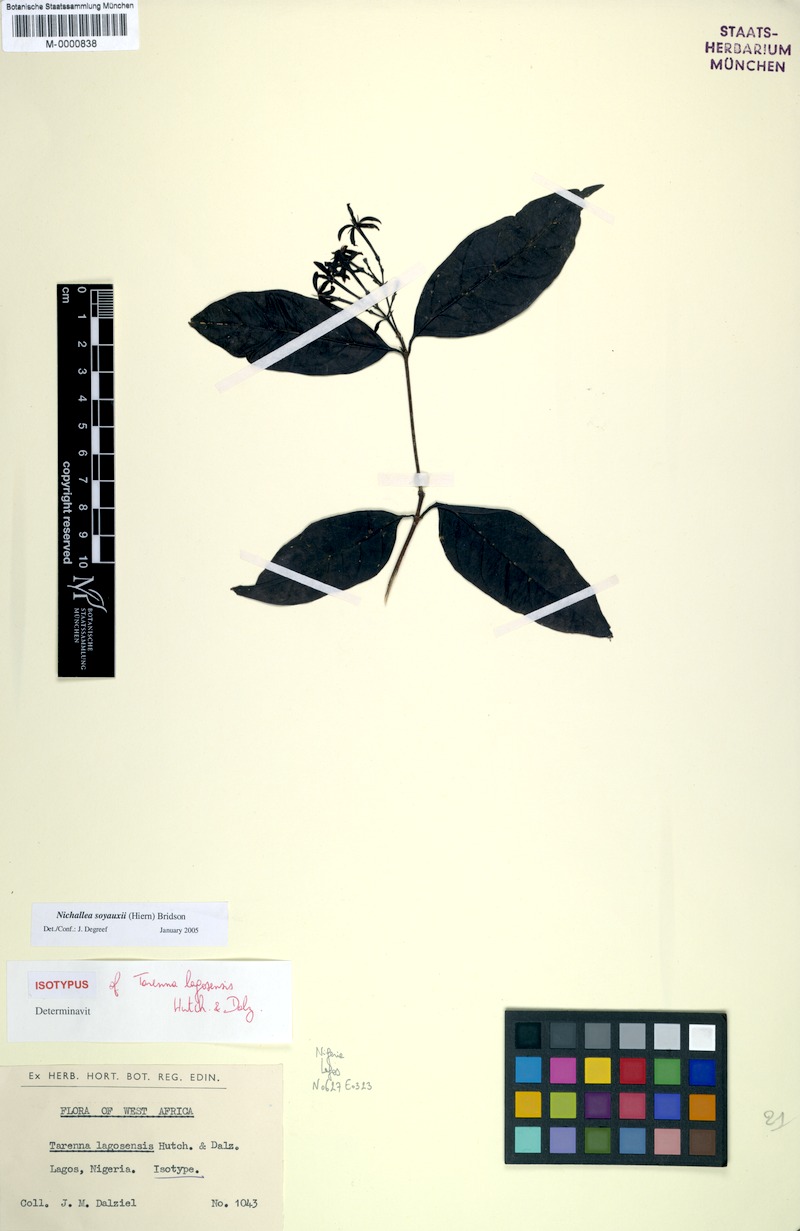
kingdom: Plantae
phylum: Tracheophyta
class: Magnoliopsida
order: Gentianales
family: Rubiaceae
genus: Nichallea
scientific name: Nichallea soyauxii
